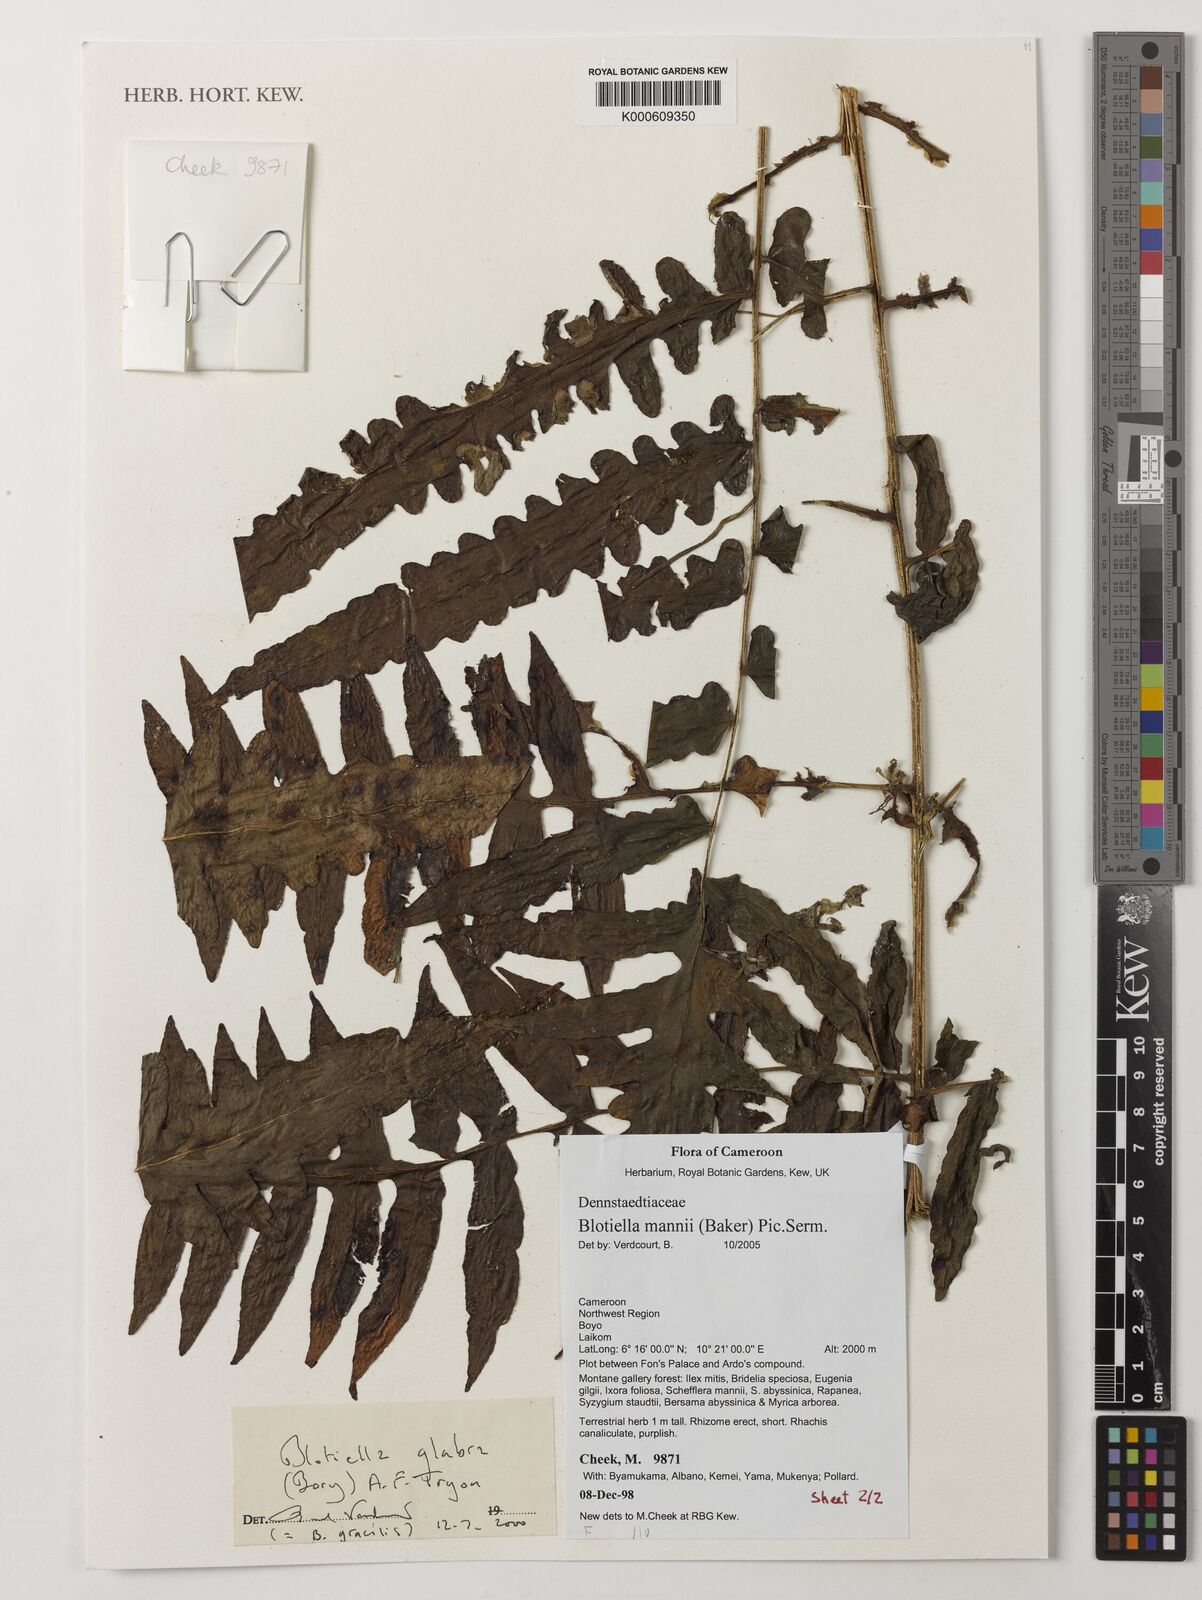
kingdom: Plantae
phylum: Tracheophyta
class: Polypodiopsida
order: Polypodiales
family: Dennstaedtiaceae
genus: Blotiella
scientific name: Blotiella aurita
